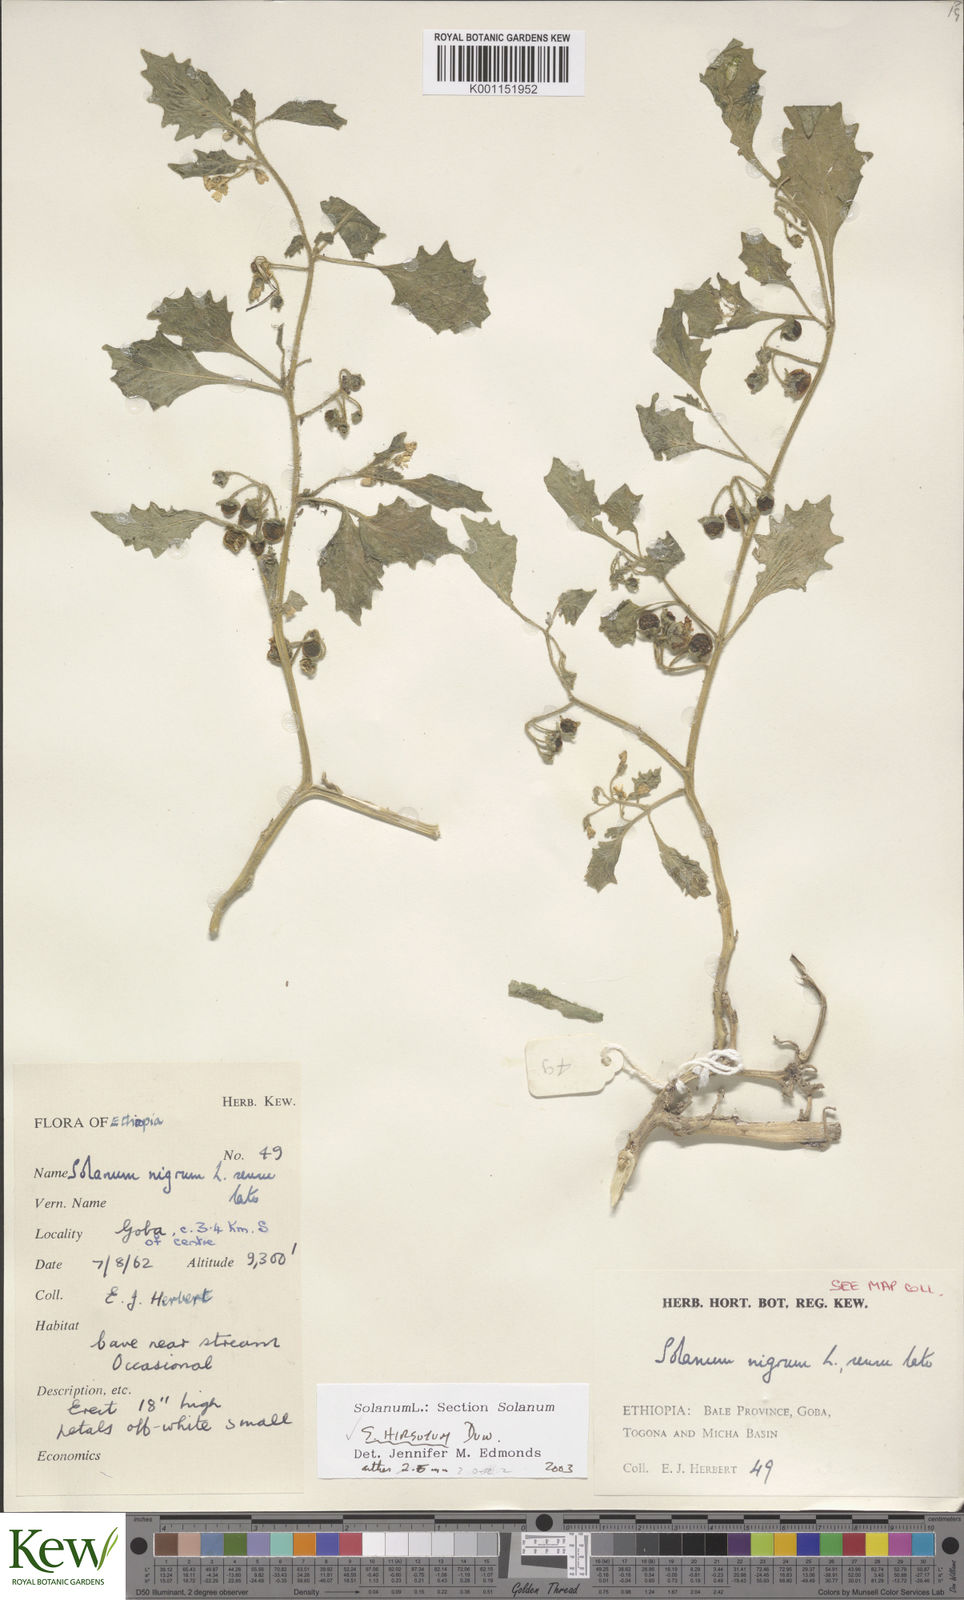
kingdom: Plantae
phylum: Tracheophyta
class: Magnoliopsida
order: Solanales
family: Solanaceae
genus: Solanum
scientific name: Solanum
